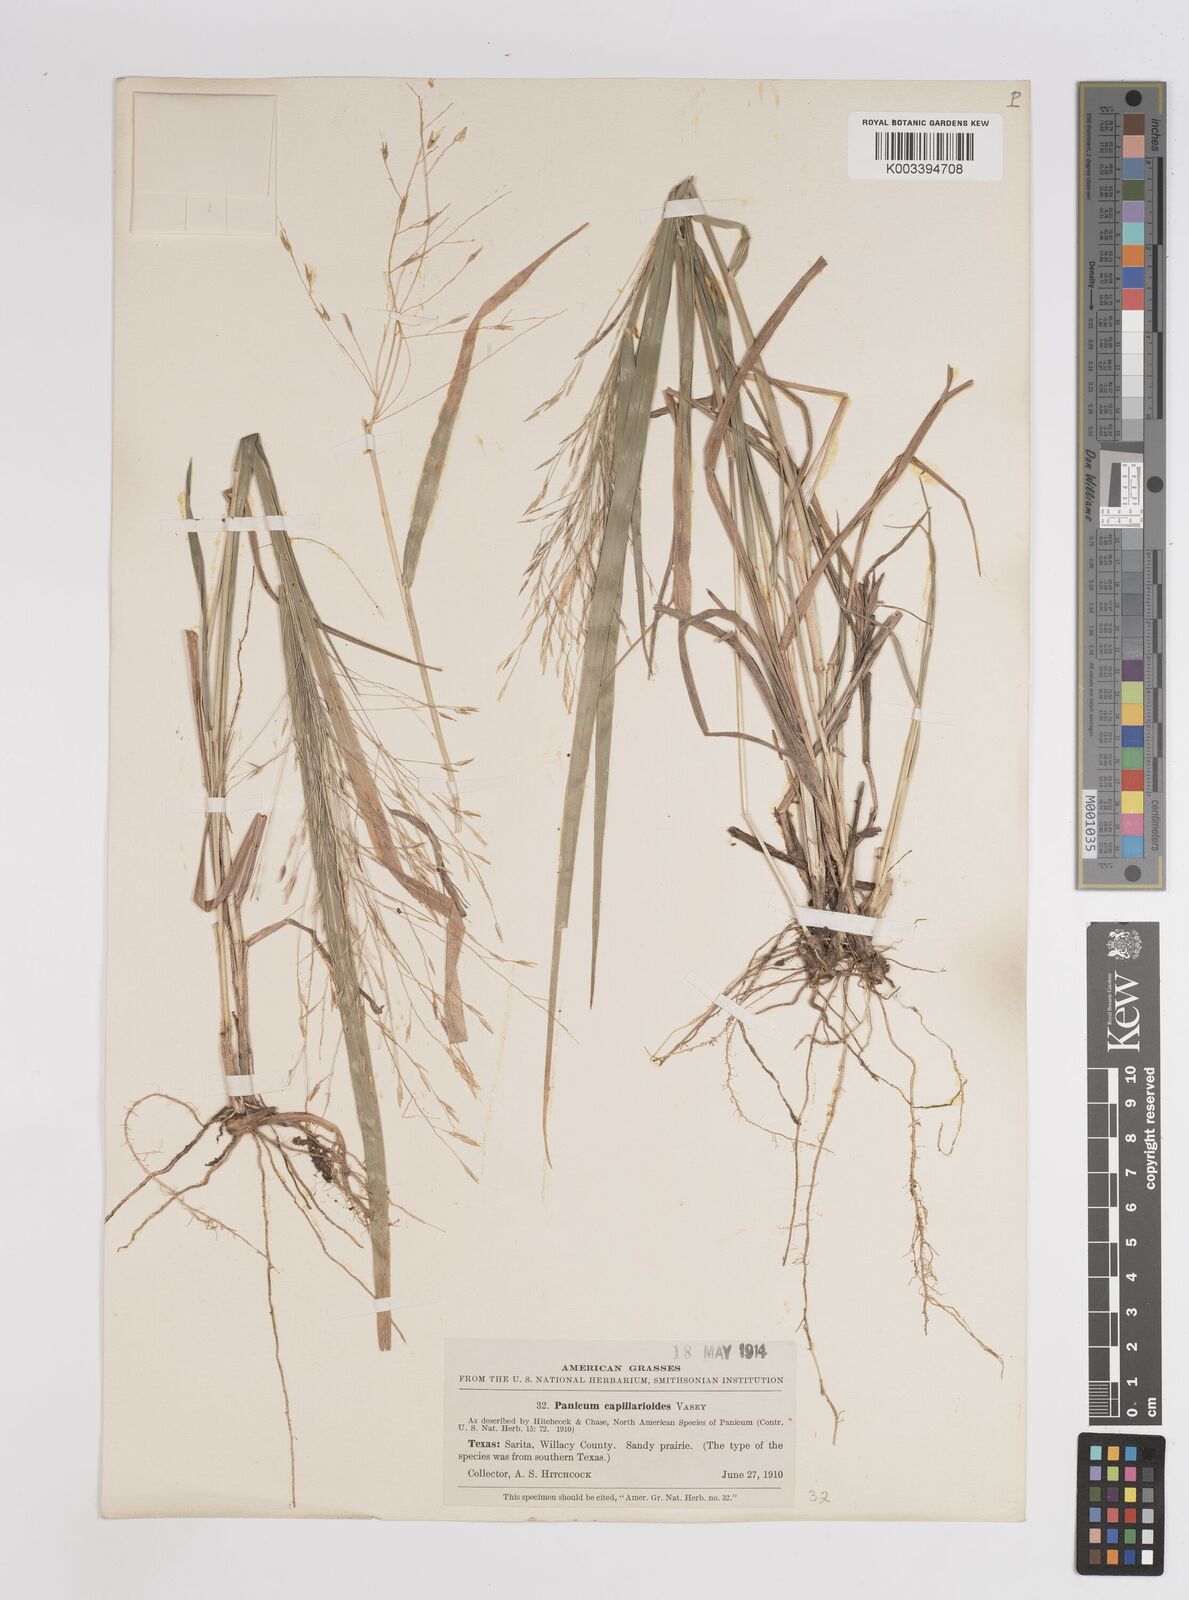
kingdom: Plantae
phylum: Tracheophyta
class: Liliopsida
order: Poales
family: Poaceae
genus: Panicum
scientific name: Panicum capillarioides
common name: Long-beak witchgrass
